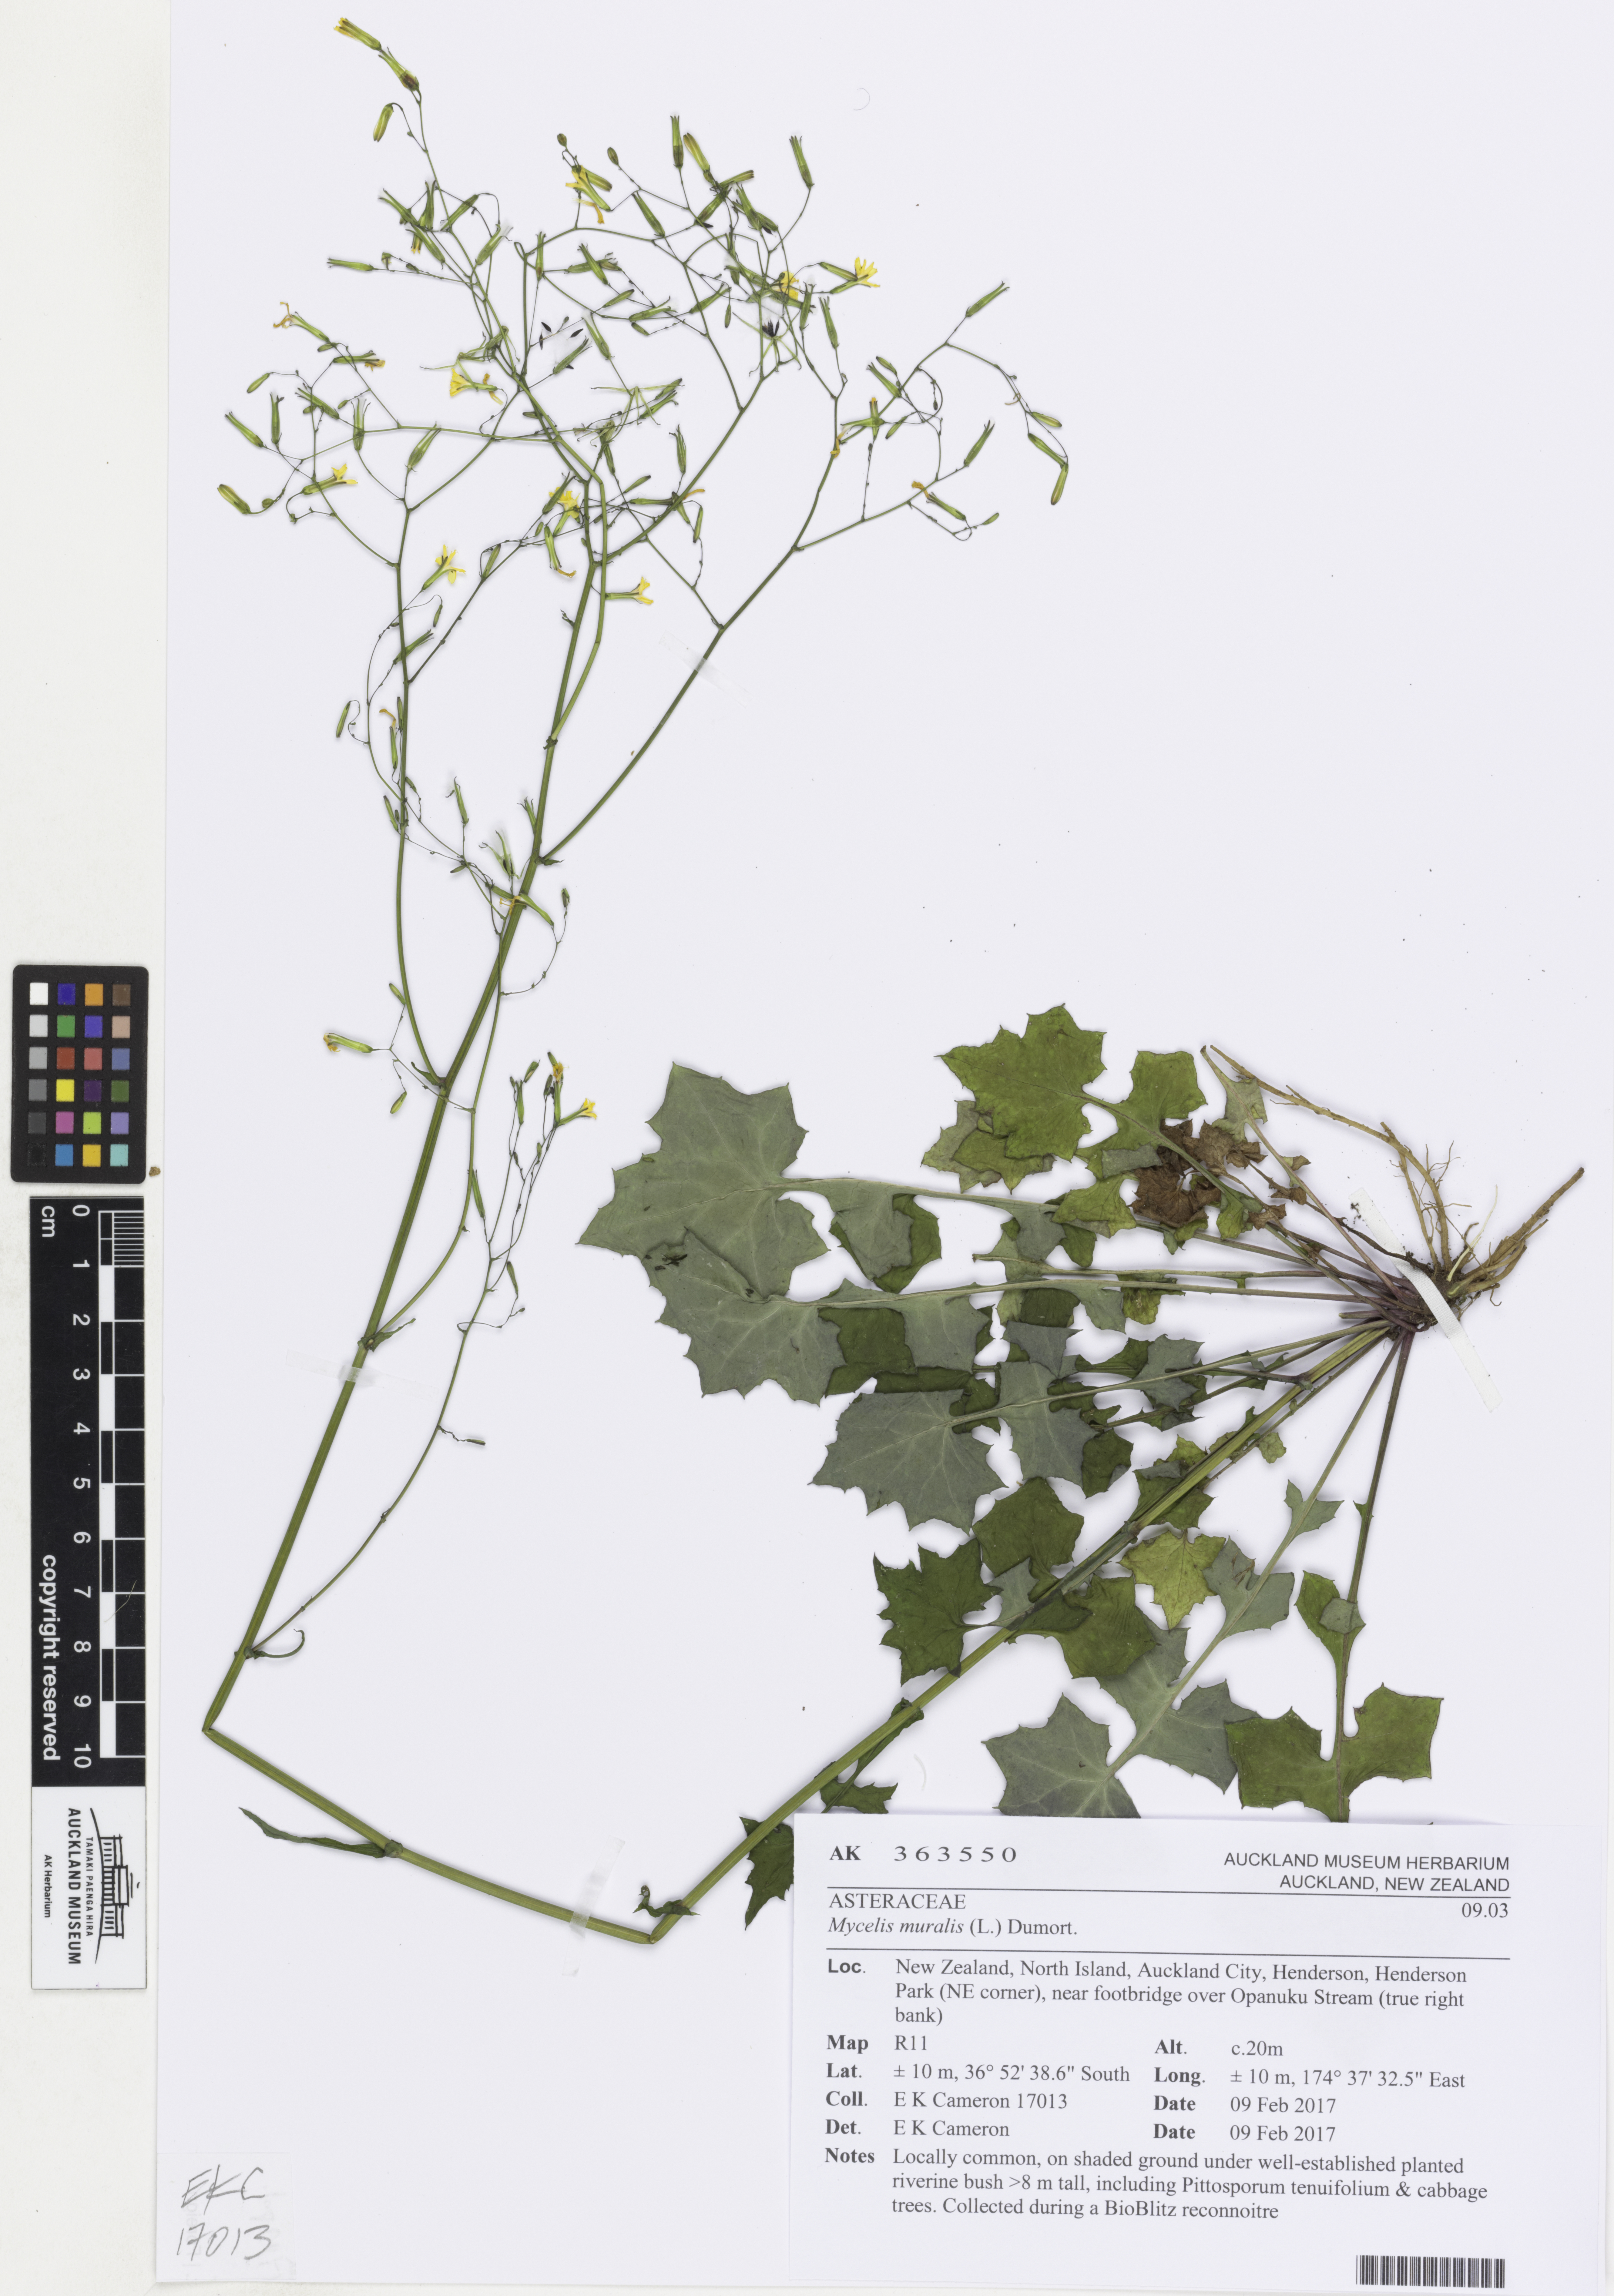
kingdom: Plantae
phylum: Tracheophyta
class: Magnoliopsida
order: Asterales
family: Asteraceae
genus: Mycelis
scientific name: Mycelis muralis
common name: Wall lettuce
